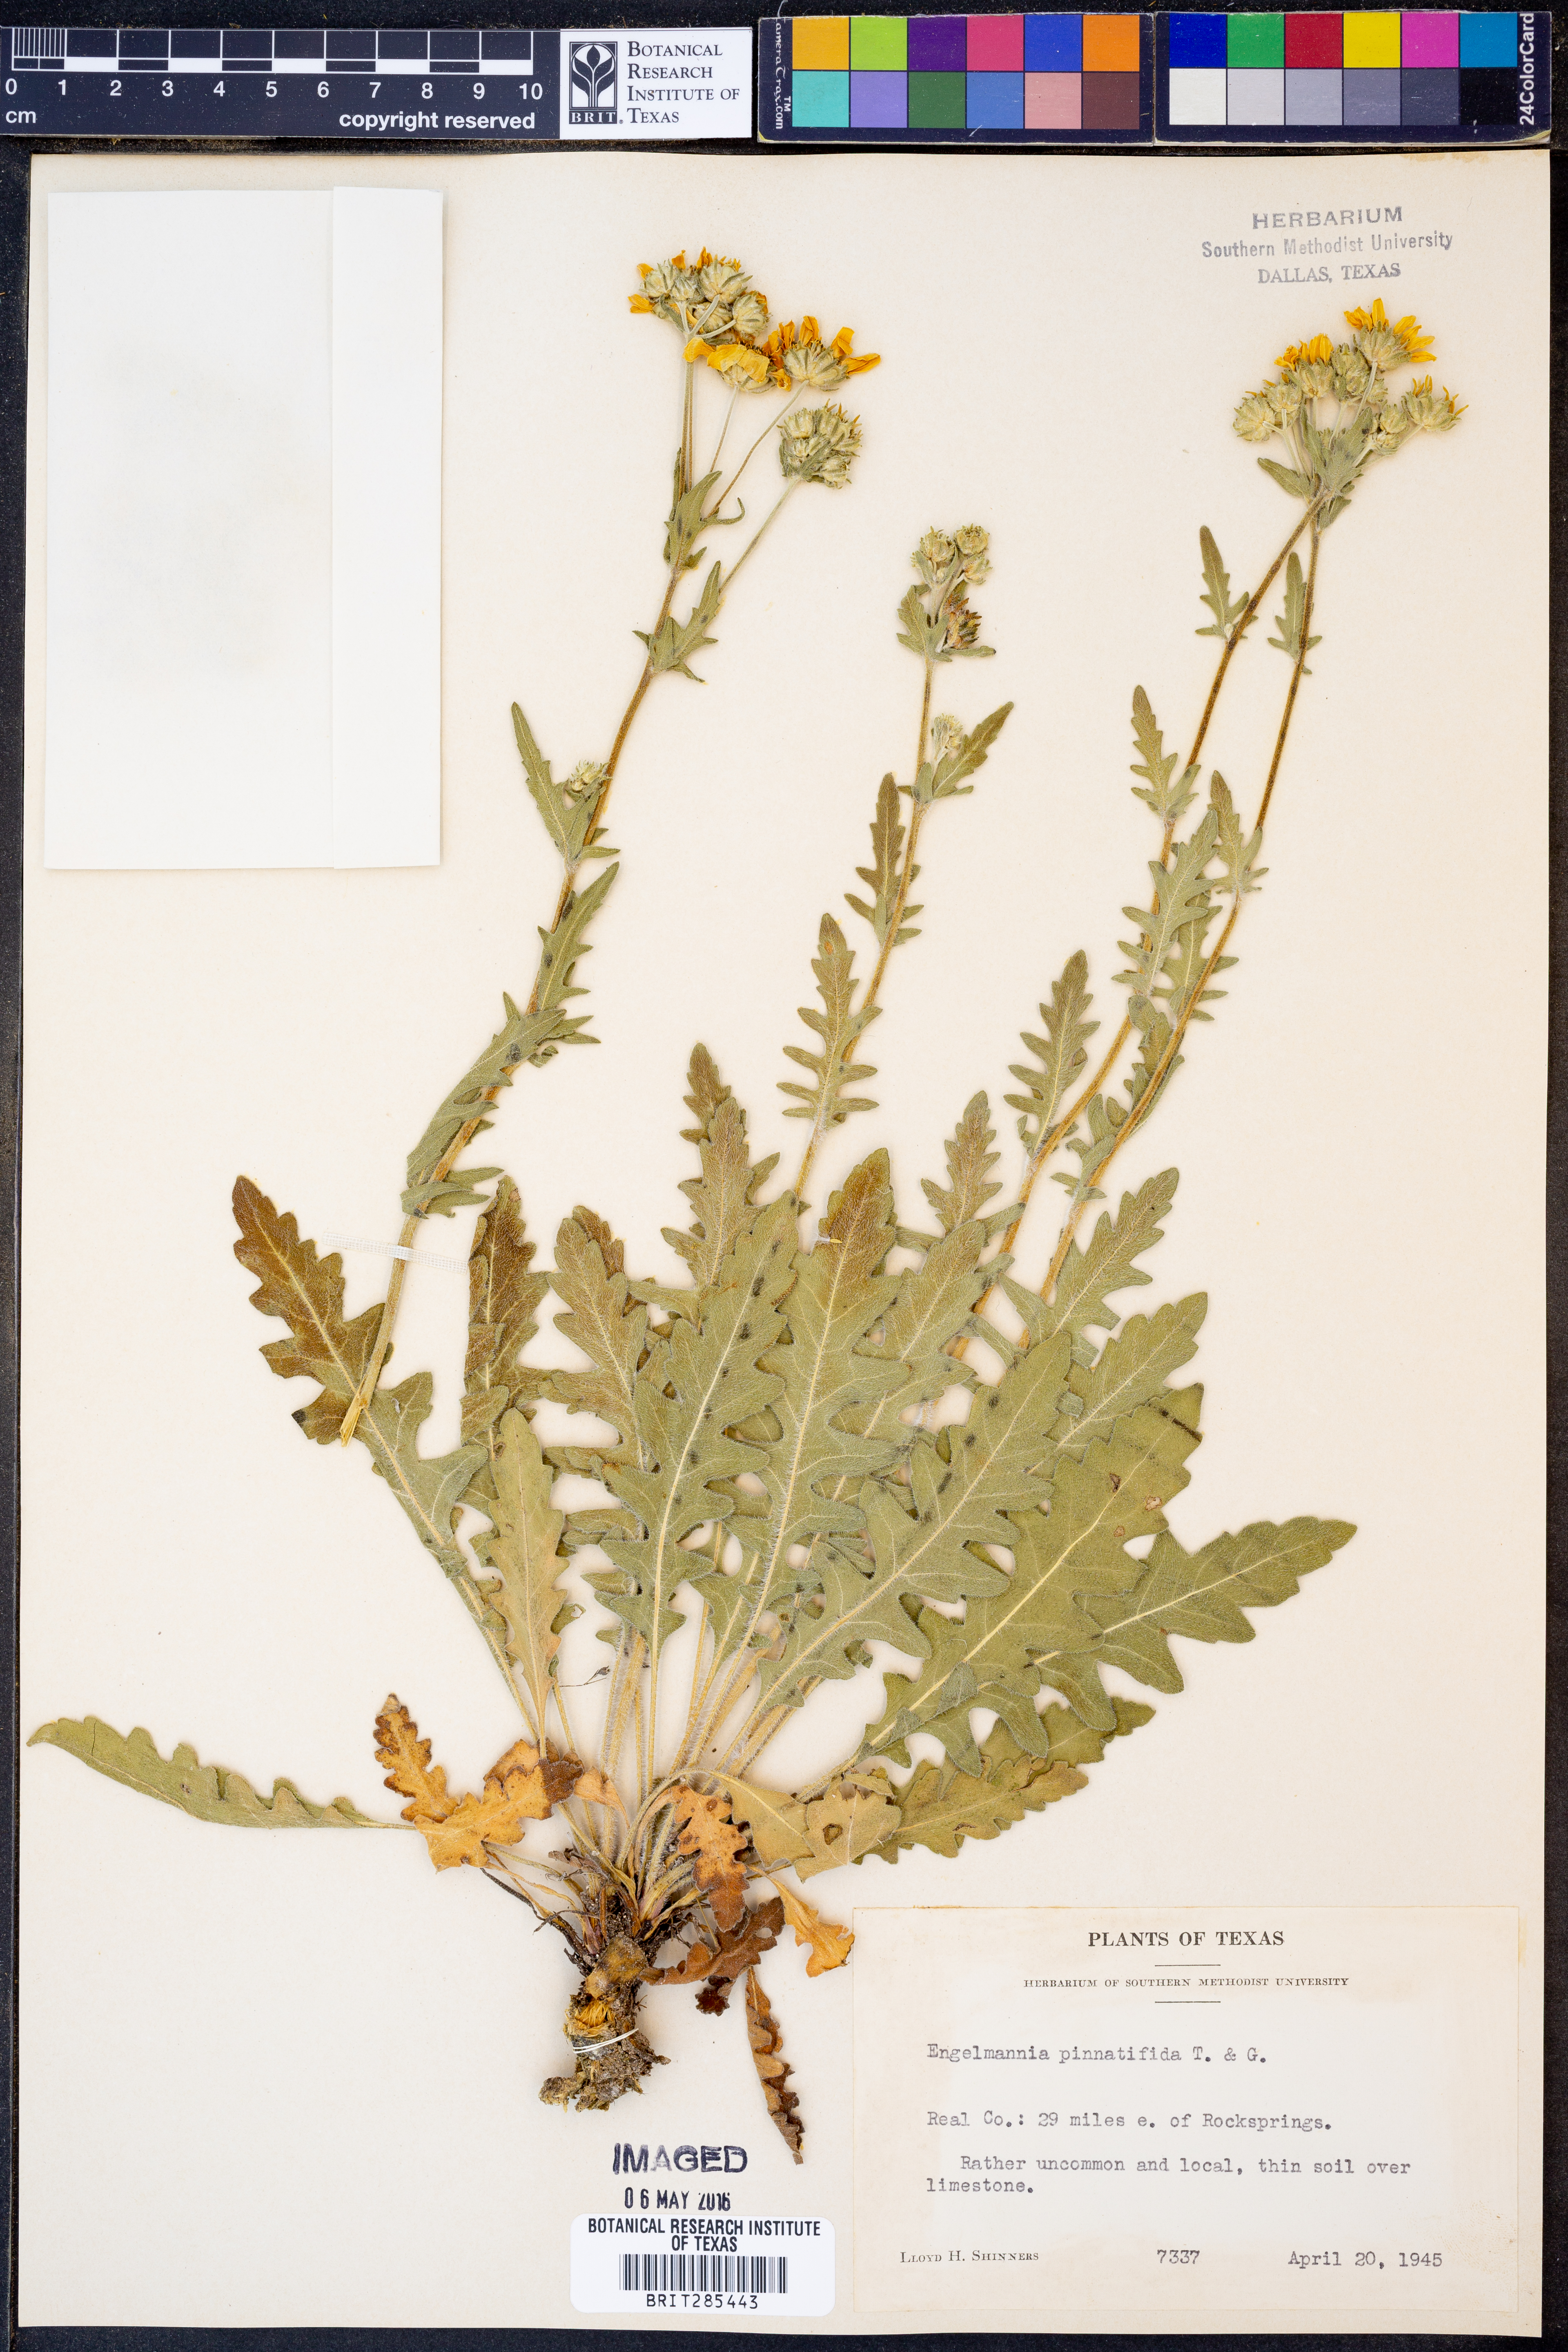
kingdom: Plantae
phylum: Tracheophyta
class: Magnoliopsida
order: Asterales
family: Asteraceae
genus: Engelmannia
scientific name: Engelmannia peristenia
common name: Engelmann's daisy
